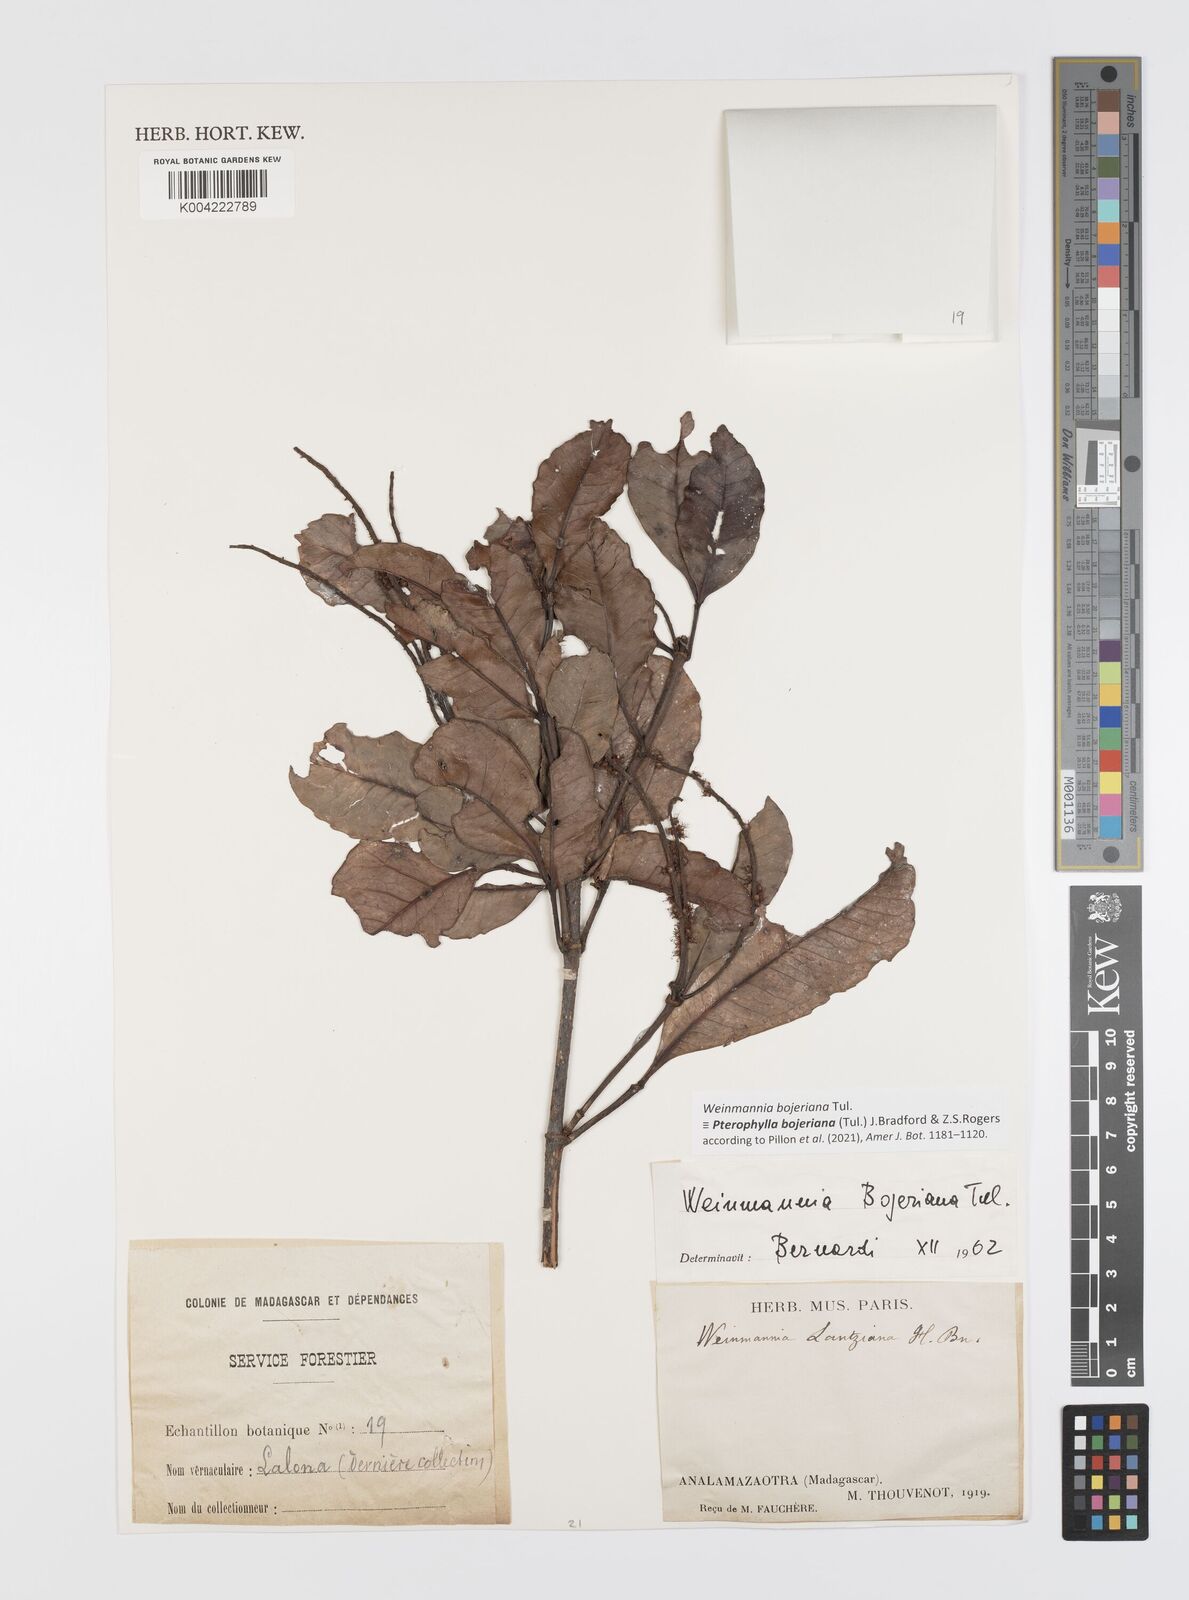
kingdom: Plantae
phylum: Tracheophyta
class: Magnoliopsida
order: Oxalidales
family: Cunoniaceae
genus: Pterophylla
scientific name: Pterophylla
